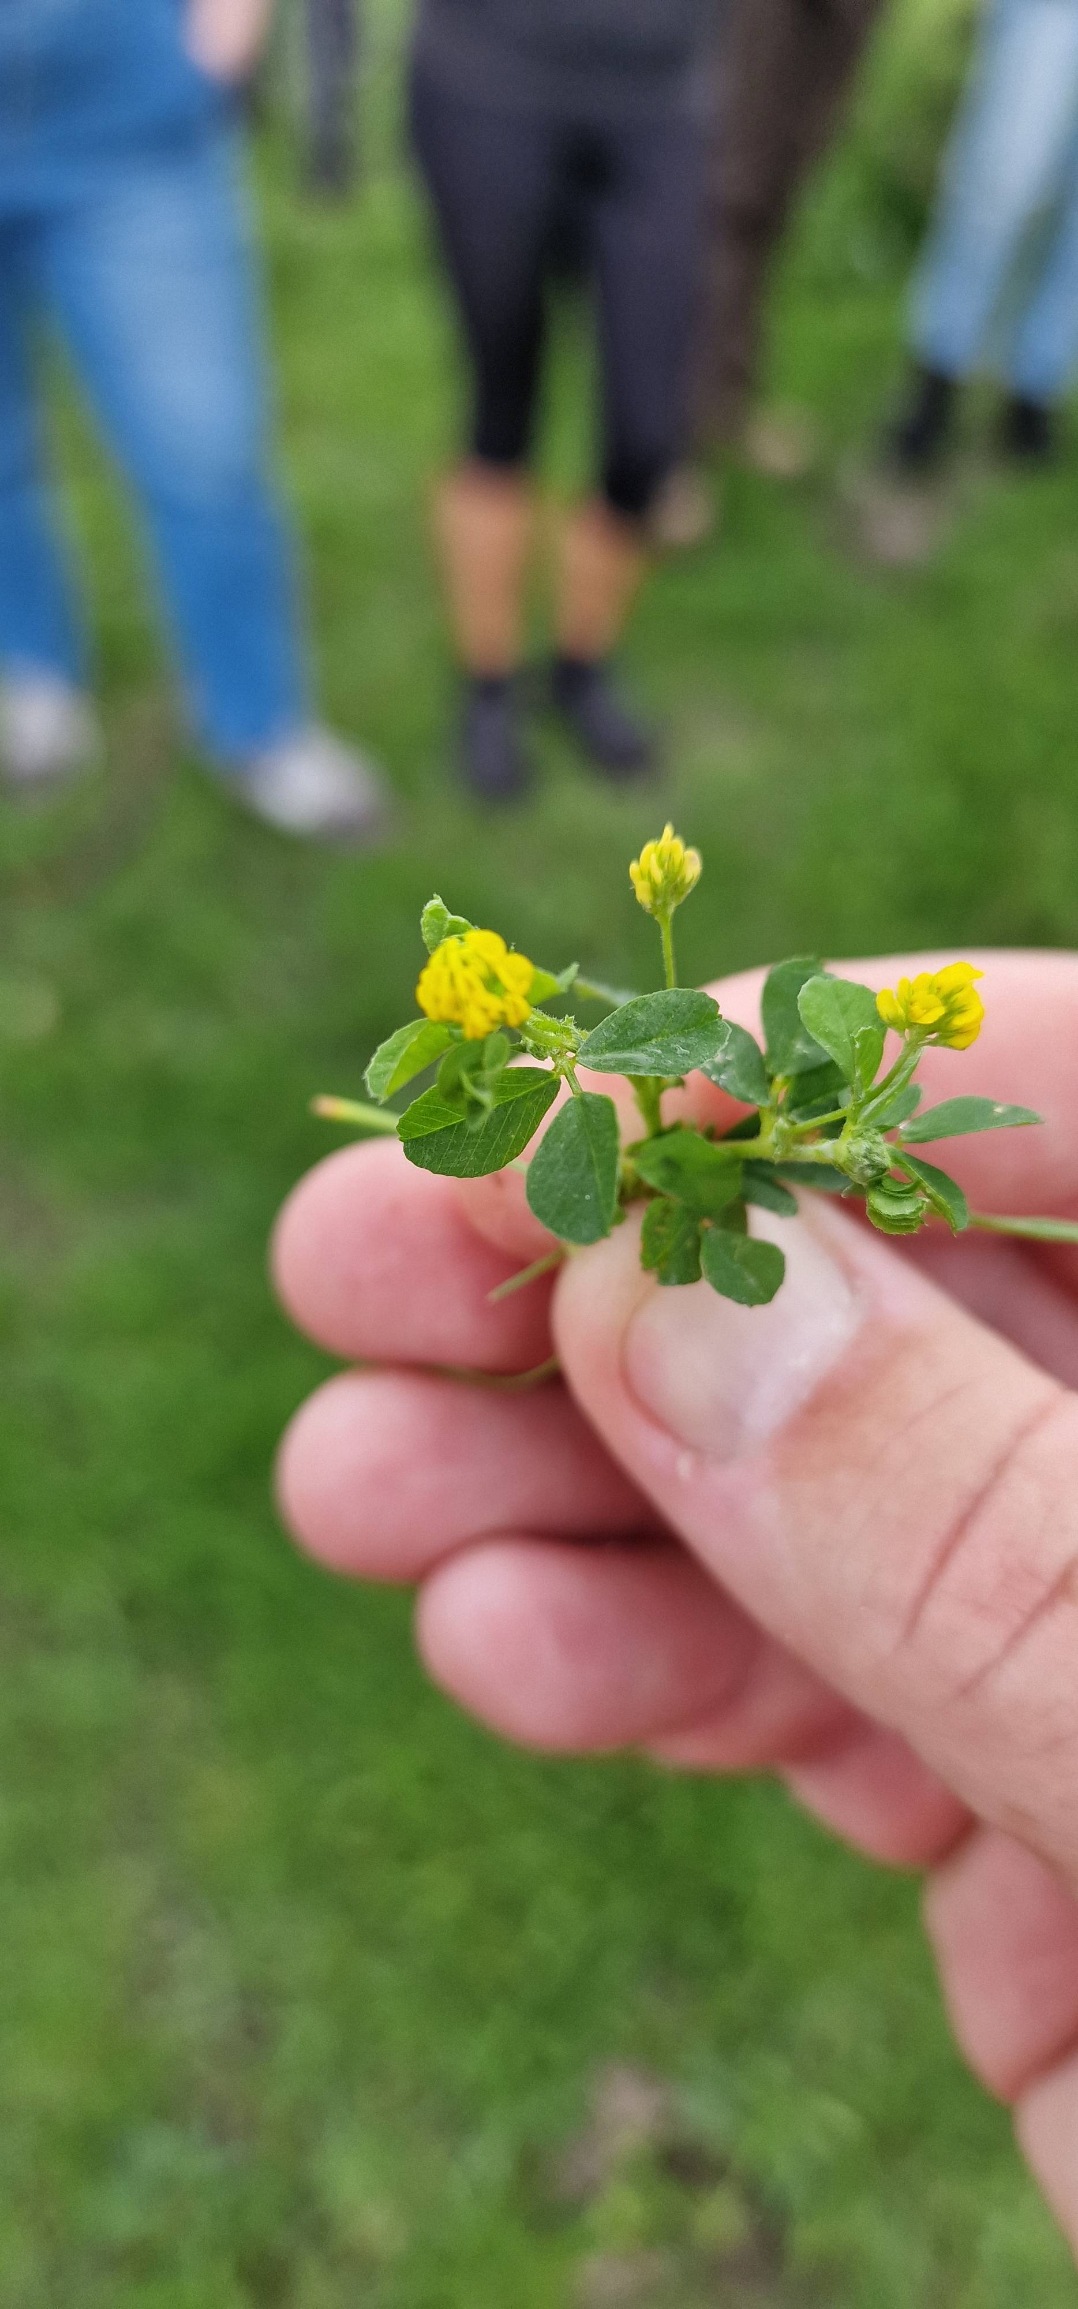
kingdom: Plantae
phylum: Tracheophyta
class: Magnoliopsida
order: Fabales
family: Fabaceae
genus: Medicago
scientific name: Medicago lupulina
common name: Humle-sneglebælg
